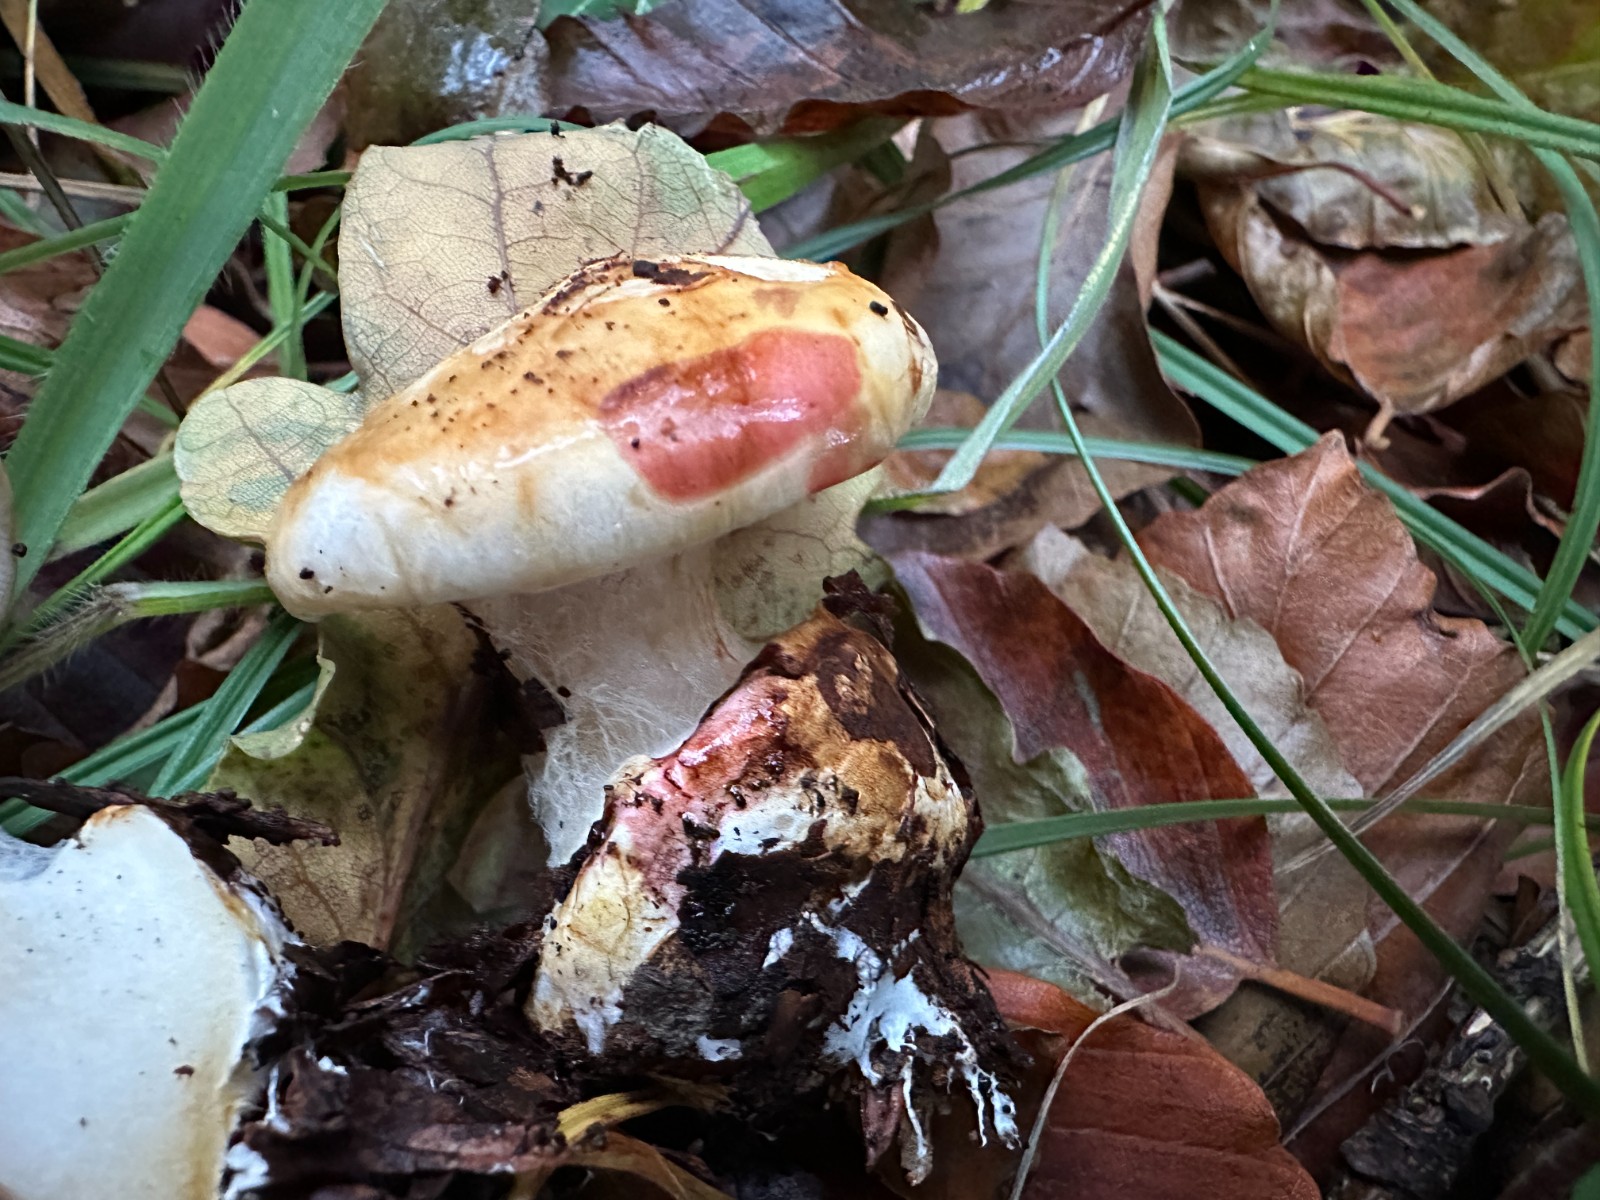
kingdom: Fungi
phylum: Basidiomycota
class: Agaricomycetes
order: Agaricales
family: Cortinariaceae
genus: Cortinarius
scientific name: Cortinarius
